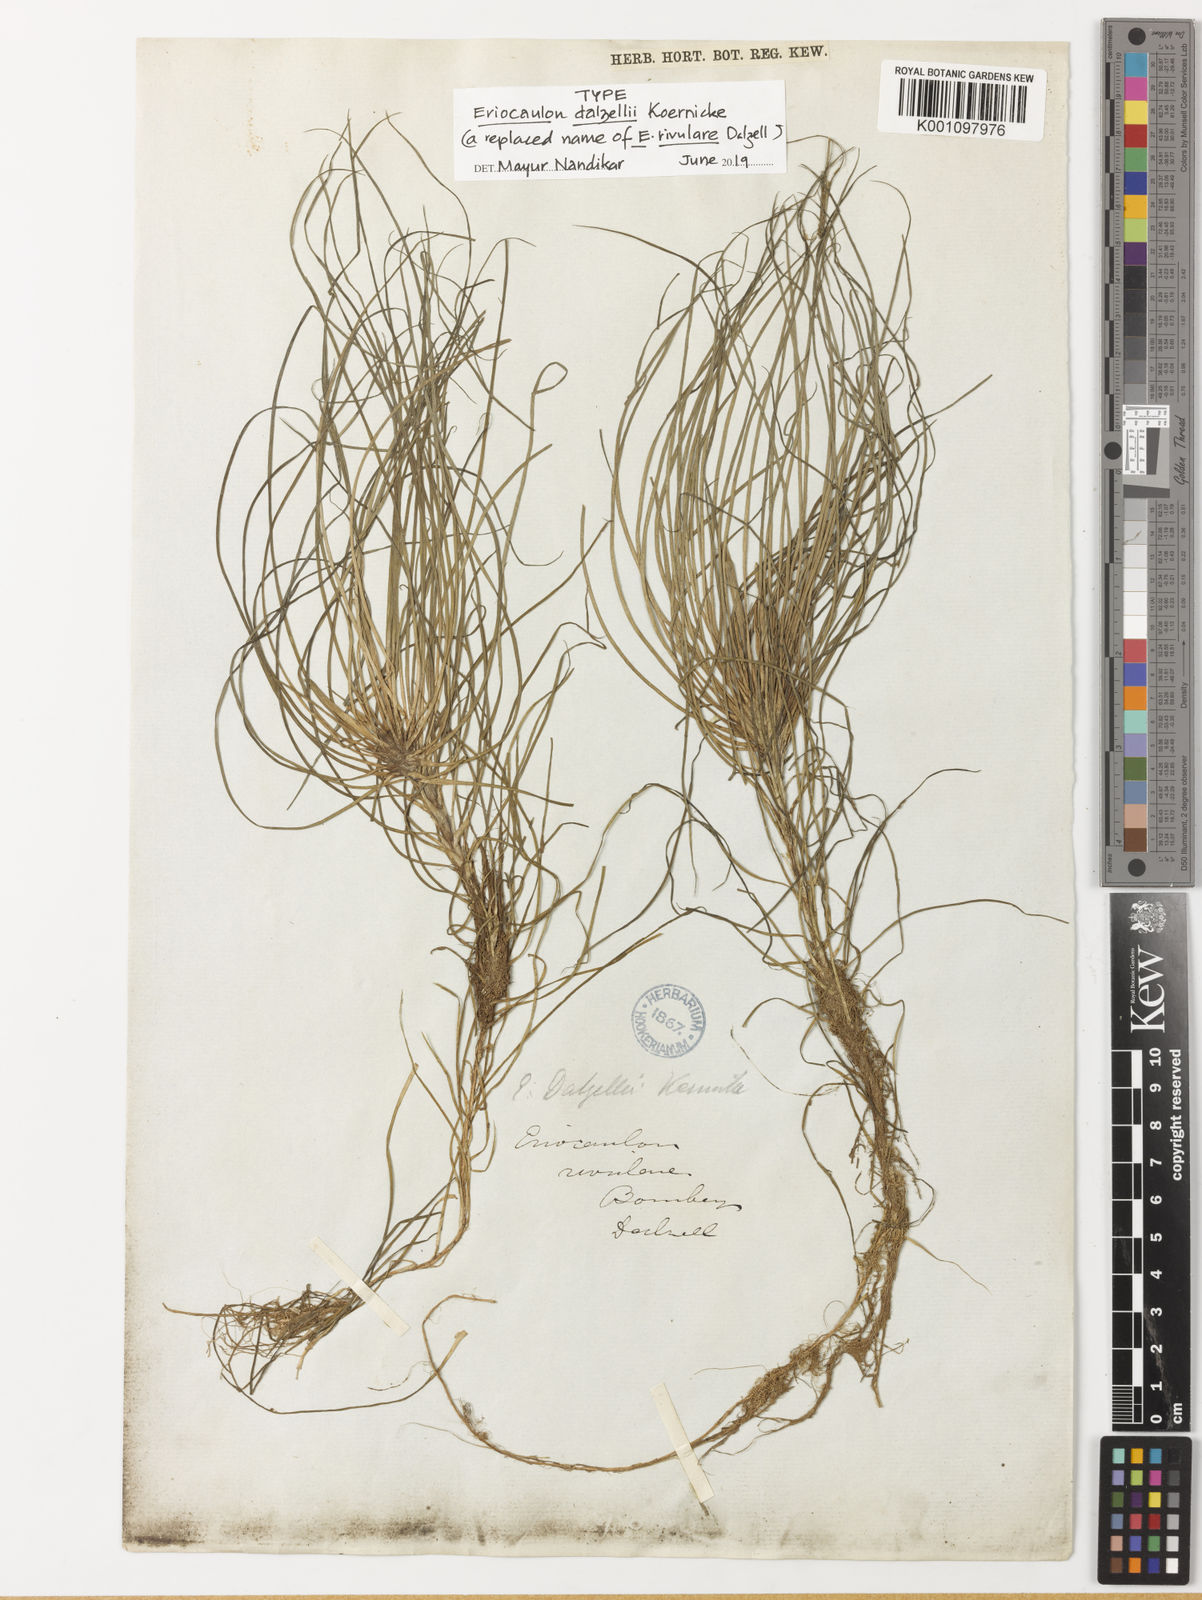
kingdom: Plantae
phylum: Tracheophyta
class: Liliopsida
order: Poales
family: Eriocaulaceae
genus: Eriocaulon
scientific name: Eriocaulon
